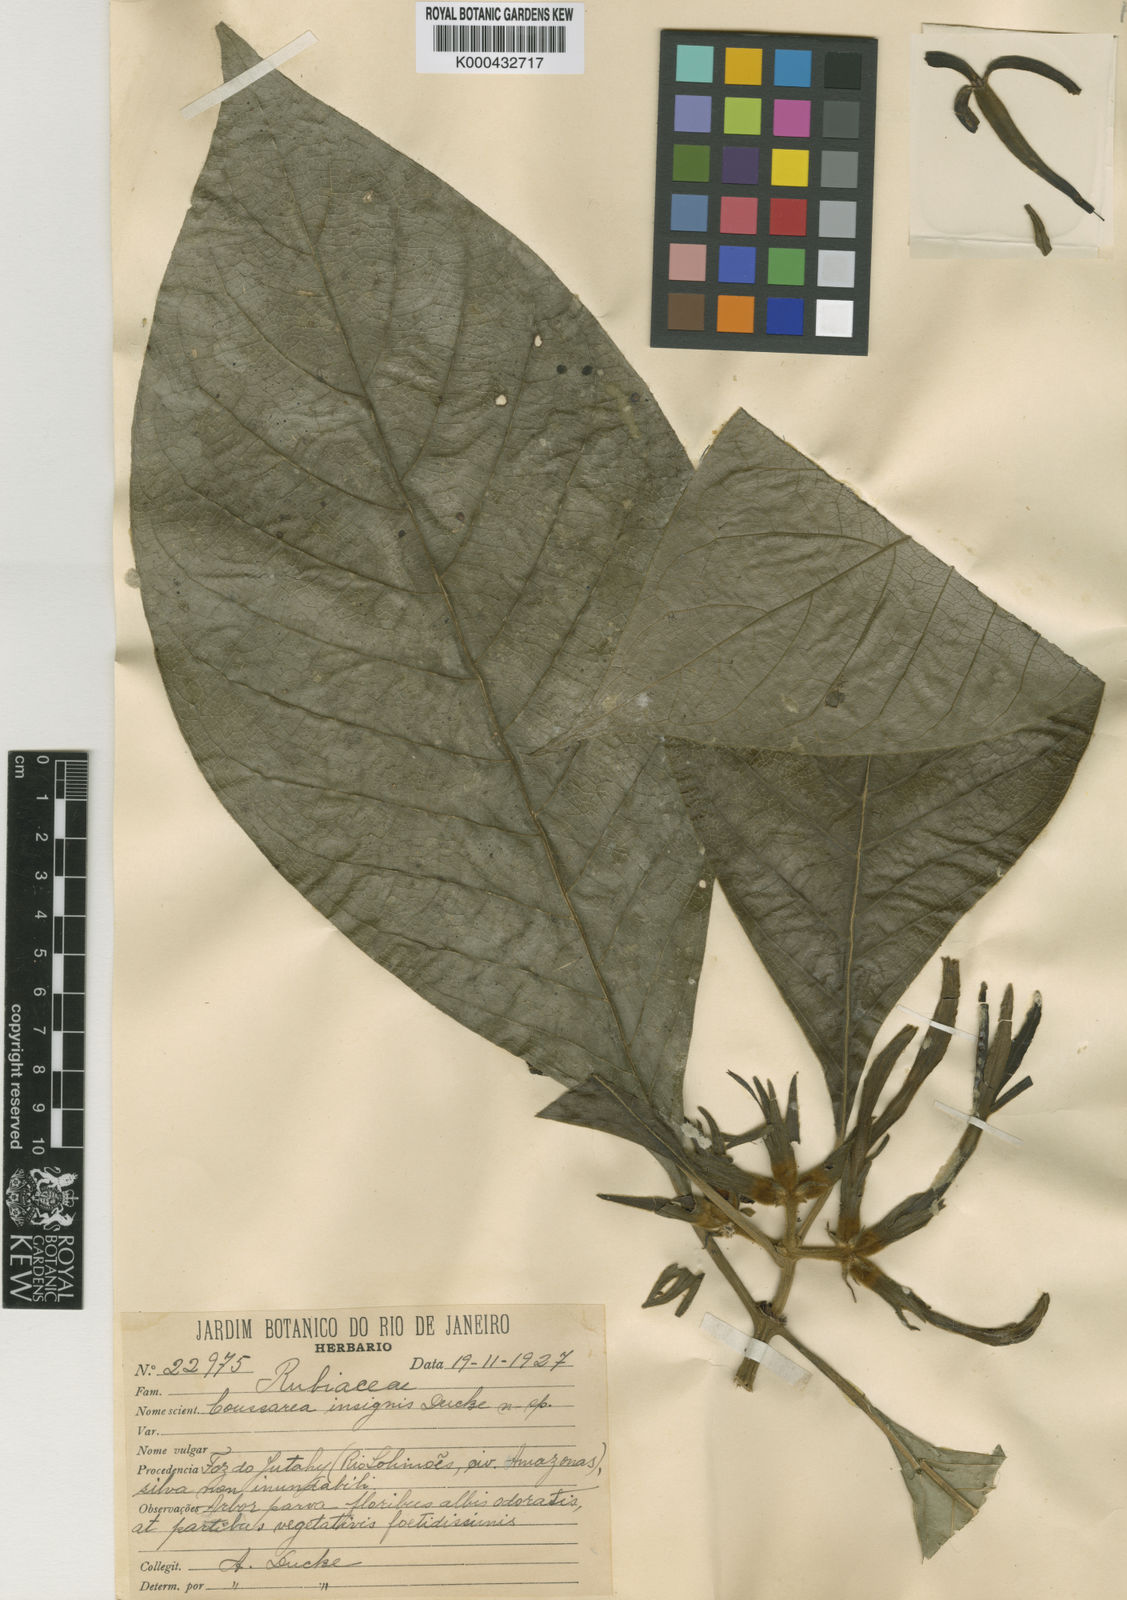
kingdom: Plantae
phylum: Tracheophyta
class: Magnoliopsida
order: Gentianales
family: Rubiaceae
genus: Coussarea
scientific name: Coussarea insignis
